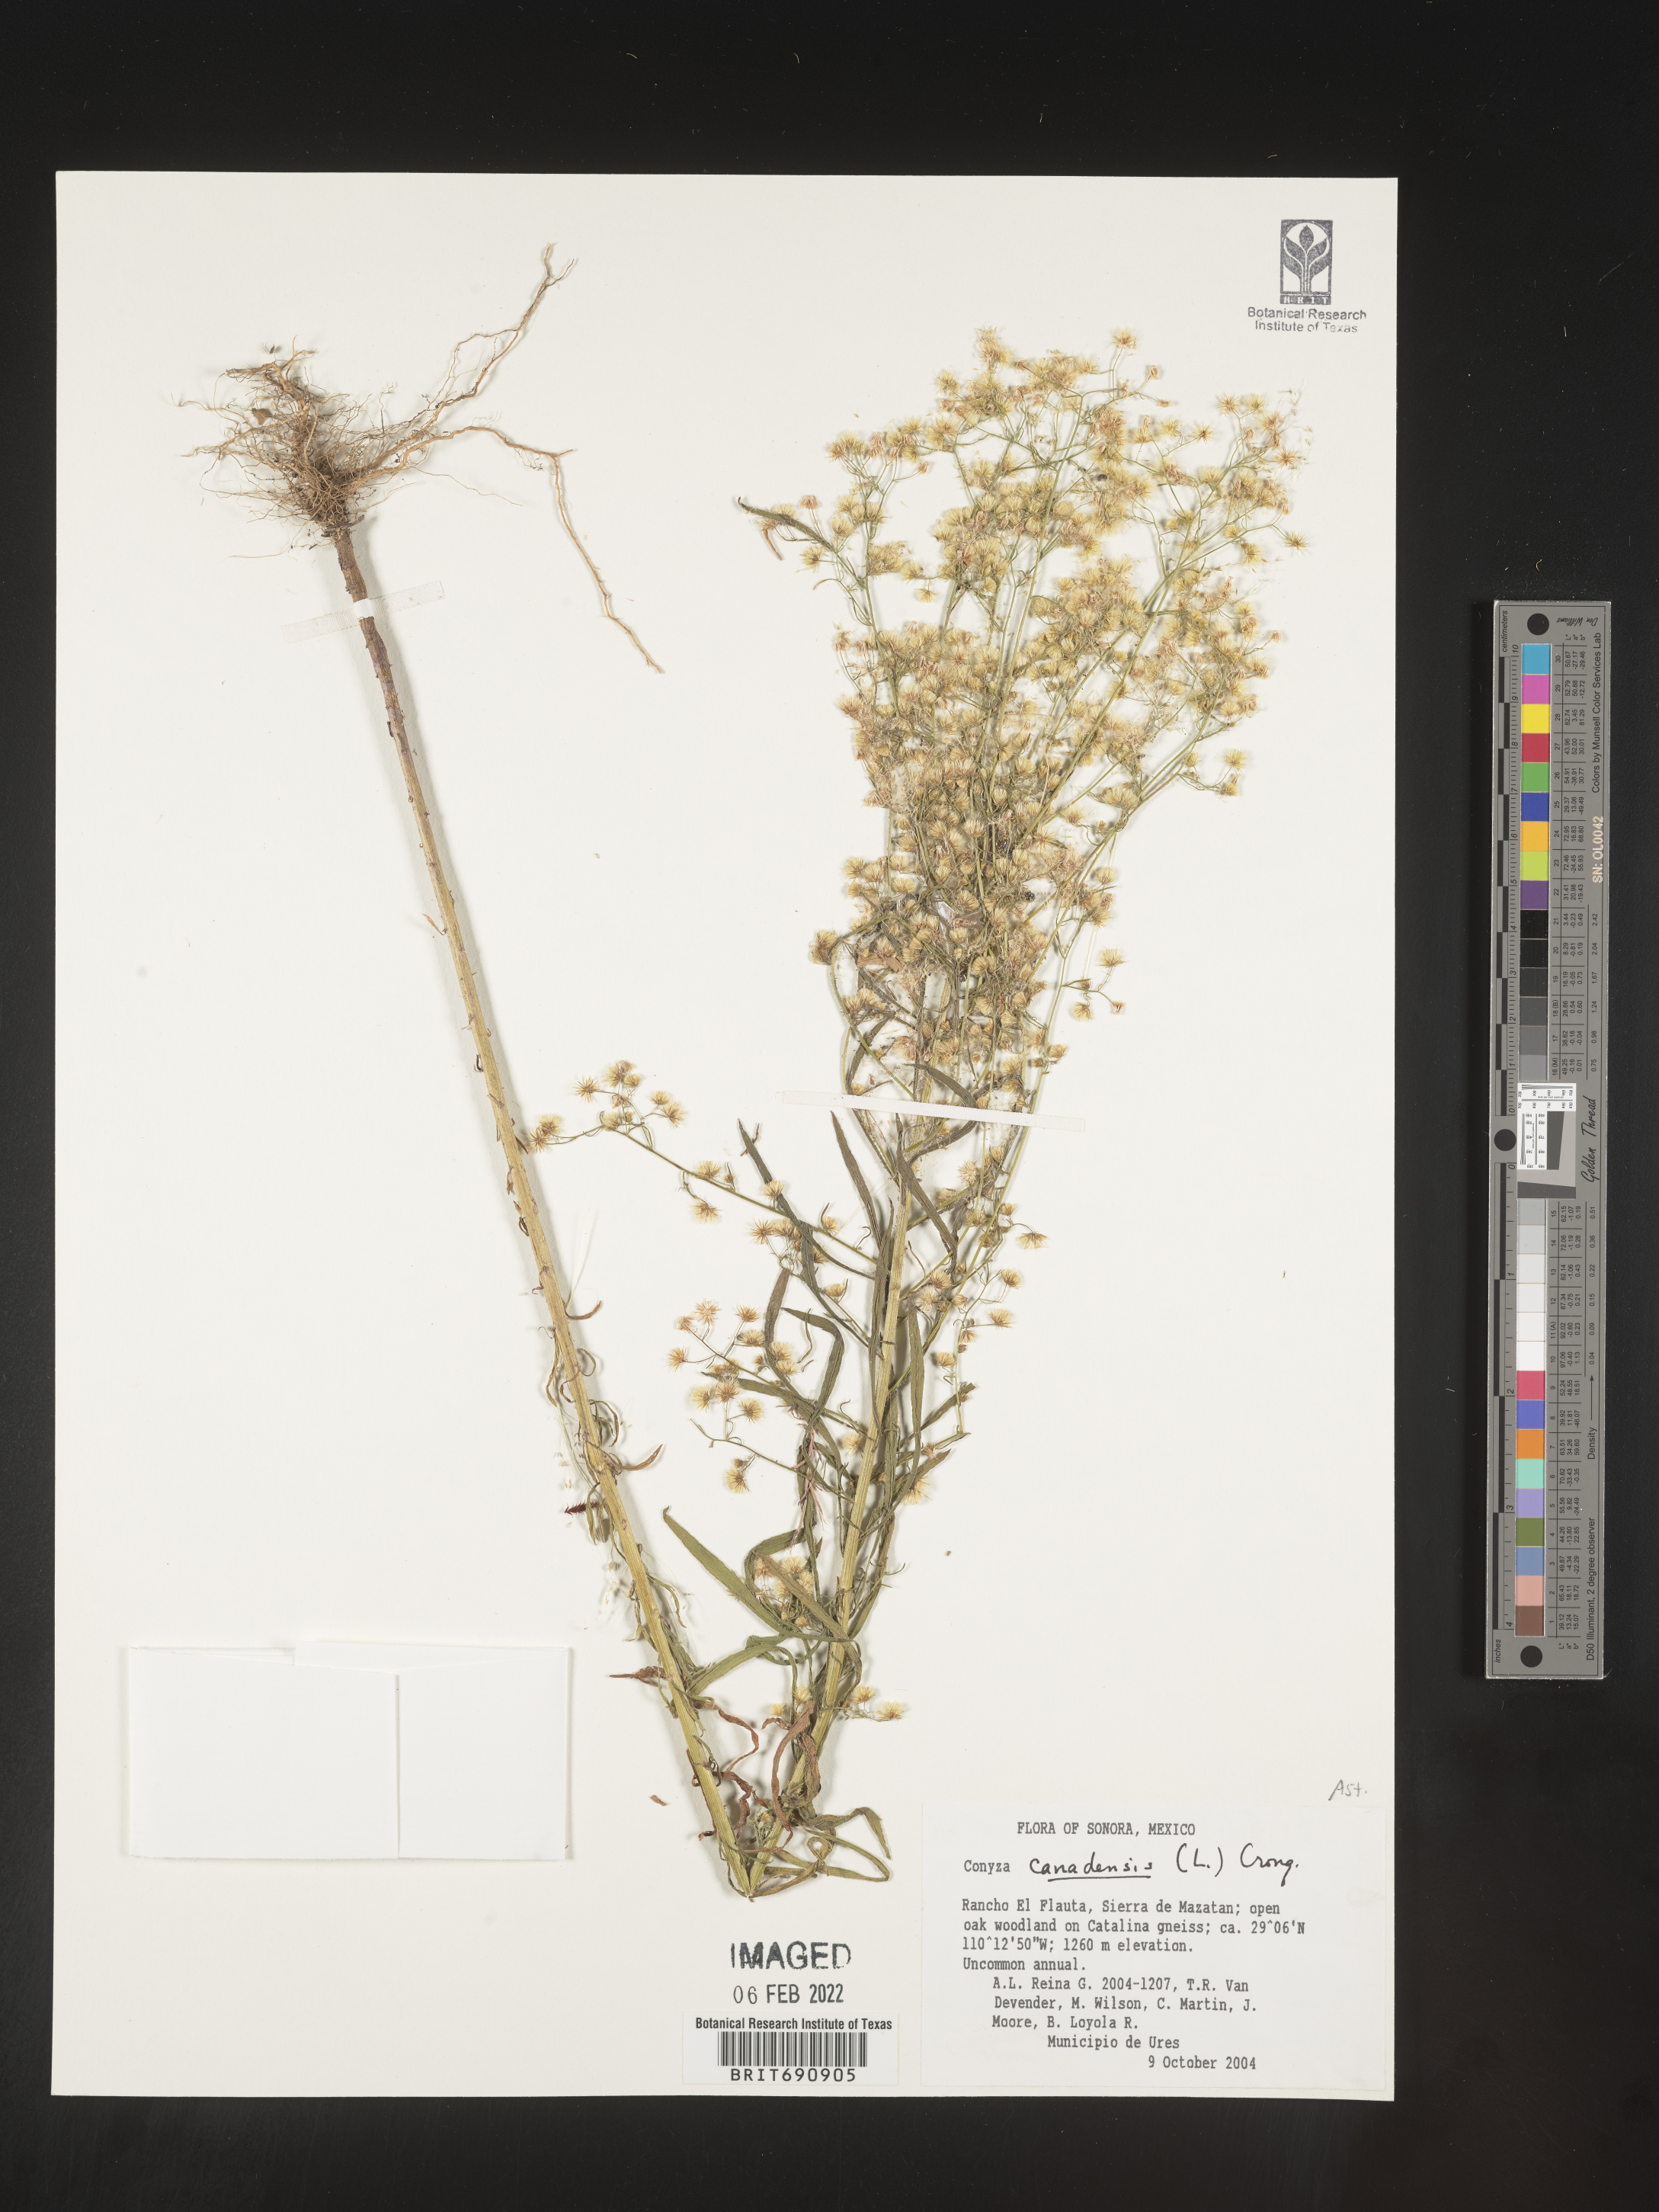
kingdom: Plantae
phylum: Tracheophyta
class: Magnoliopsida
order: Asterales
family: Asteraceae
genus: Erigeron
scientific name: Erigeron canadensis
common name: Canadian fleabane
